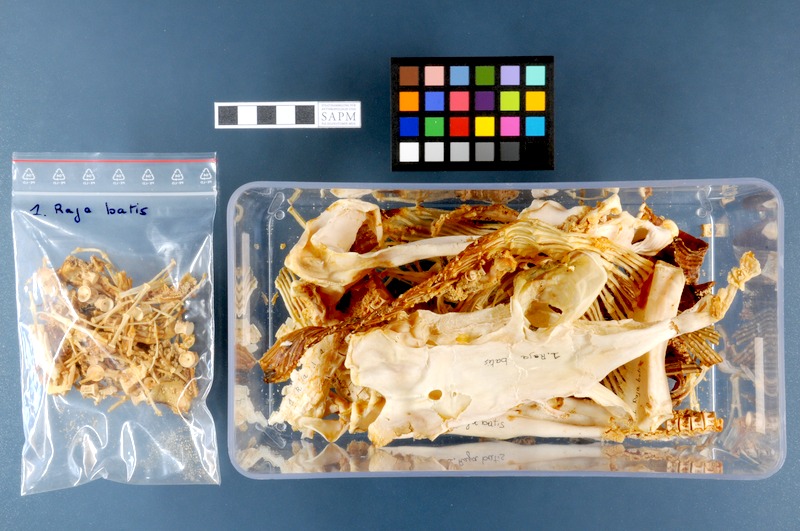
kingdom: Animalia
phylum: Chordata
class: Elasmobranchii
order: Rajiformes
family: Rajidae
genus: Dipturus
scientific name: Dipturus batis
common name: Blue skate
